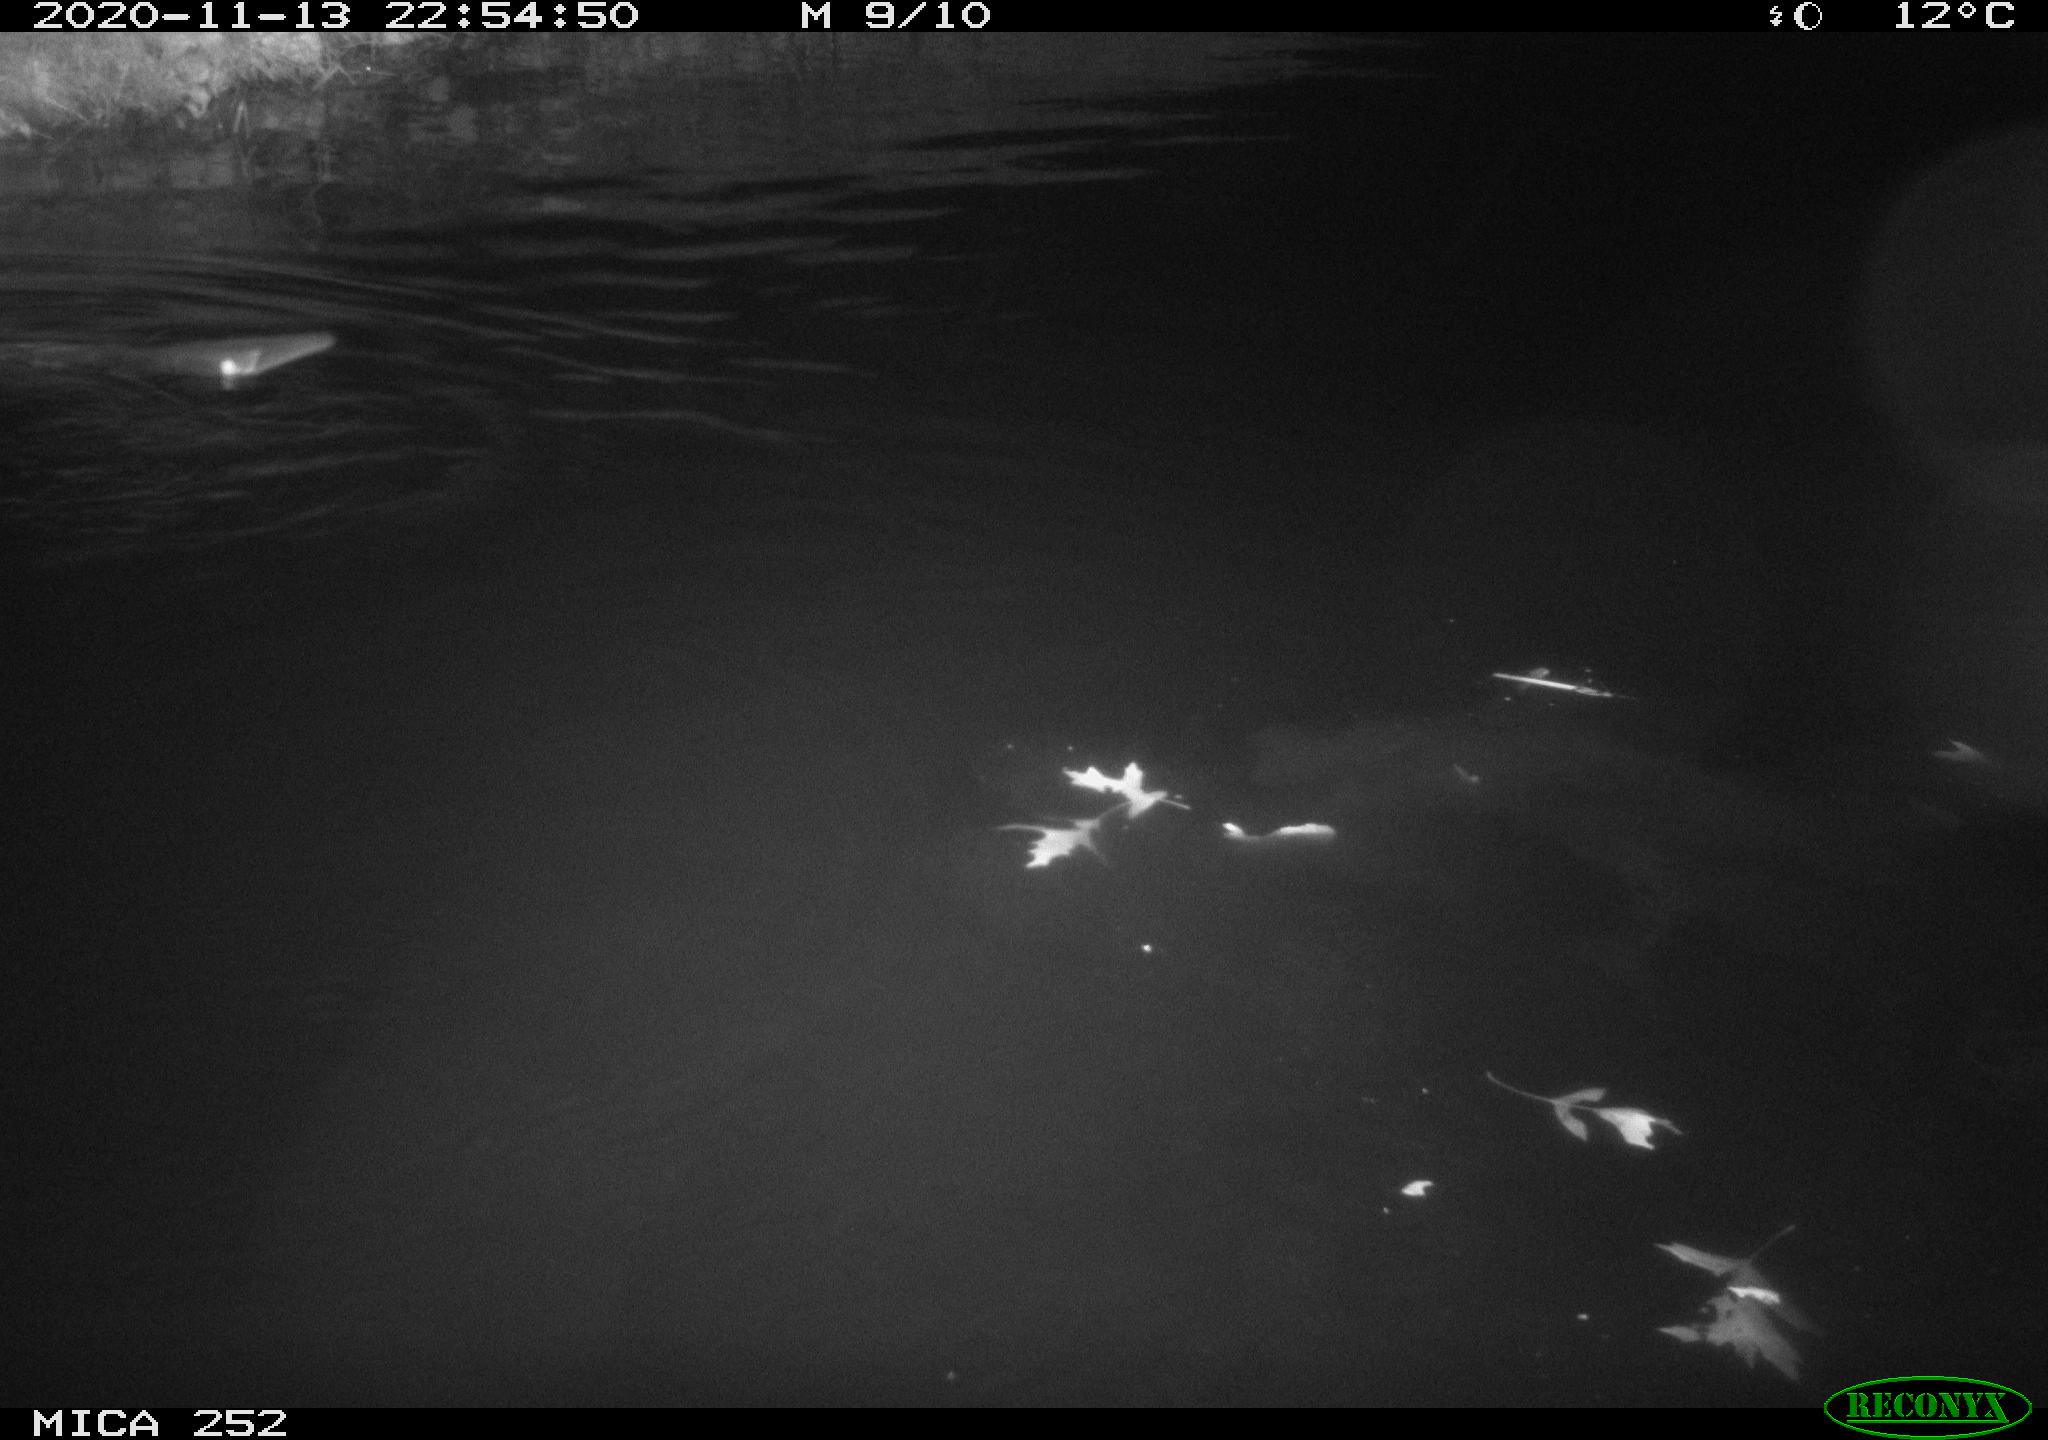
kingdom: Animalia
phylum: Chordata
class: Mammalia
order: Rodentia
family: Castoridae
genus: Castor
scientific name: Castor fiber
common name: Eurasian beaver
